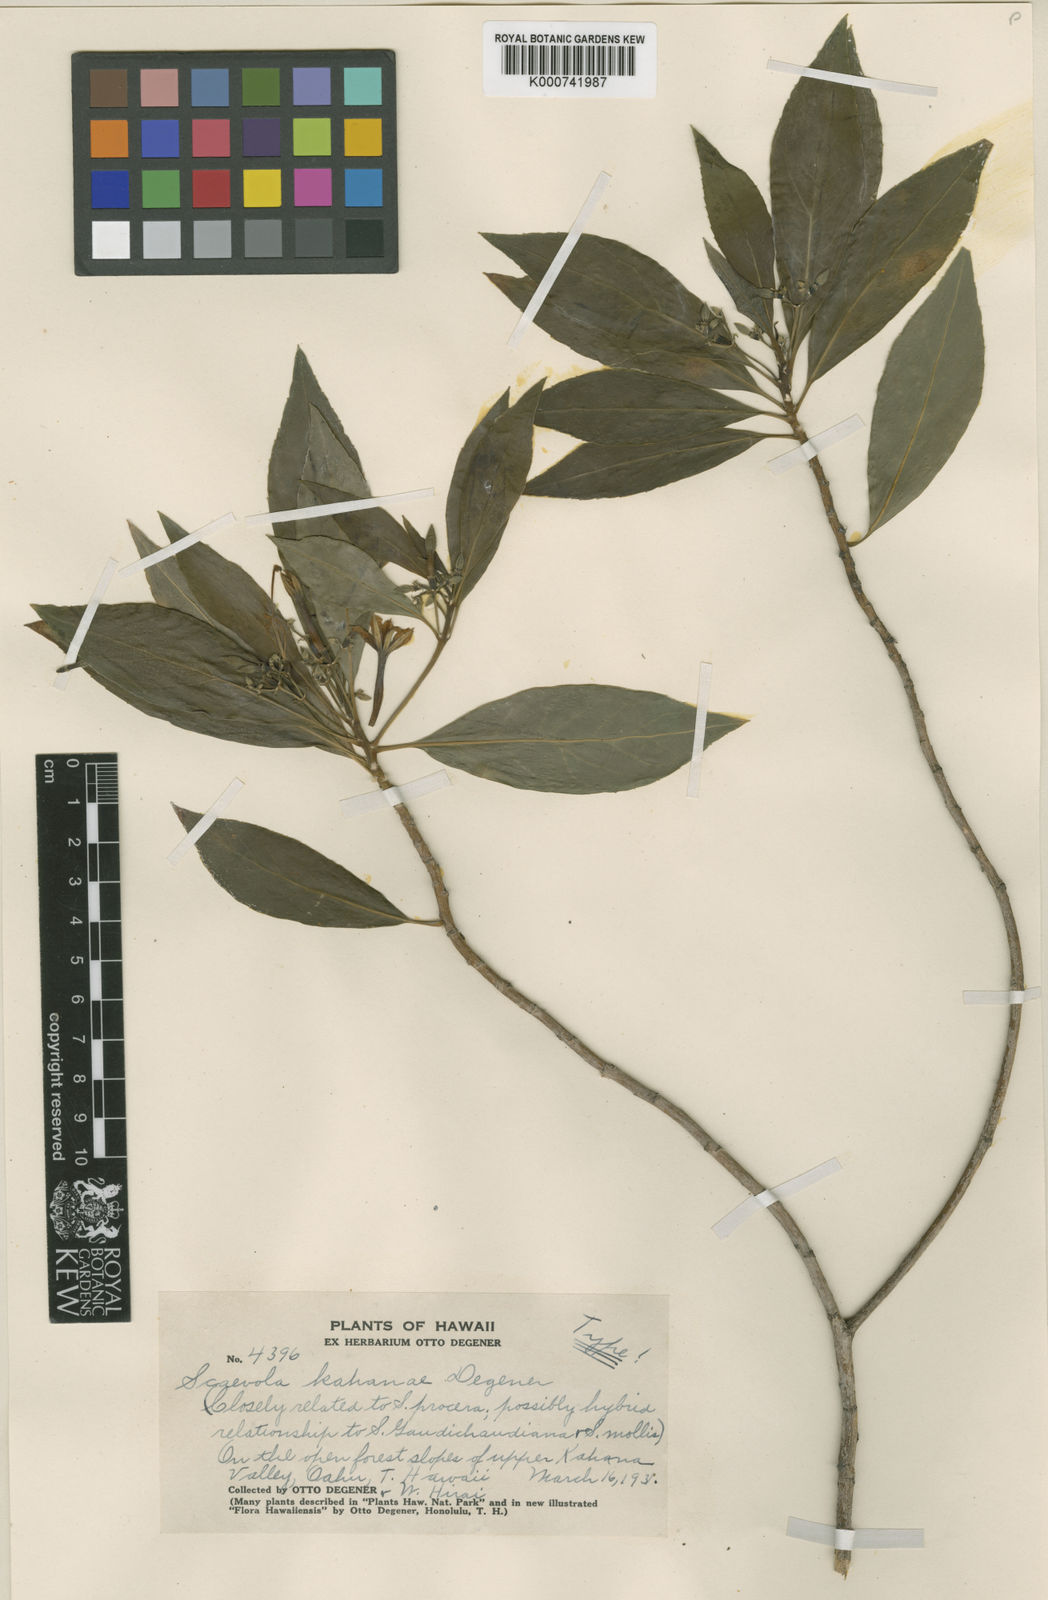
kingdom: Plantae
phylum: Tracheophyta
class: Magnoliopsida
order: Asterales
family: Goodeniaceae
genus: Scaevola
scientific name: Scaevola gaudichaudiana
